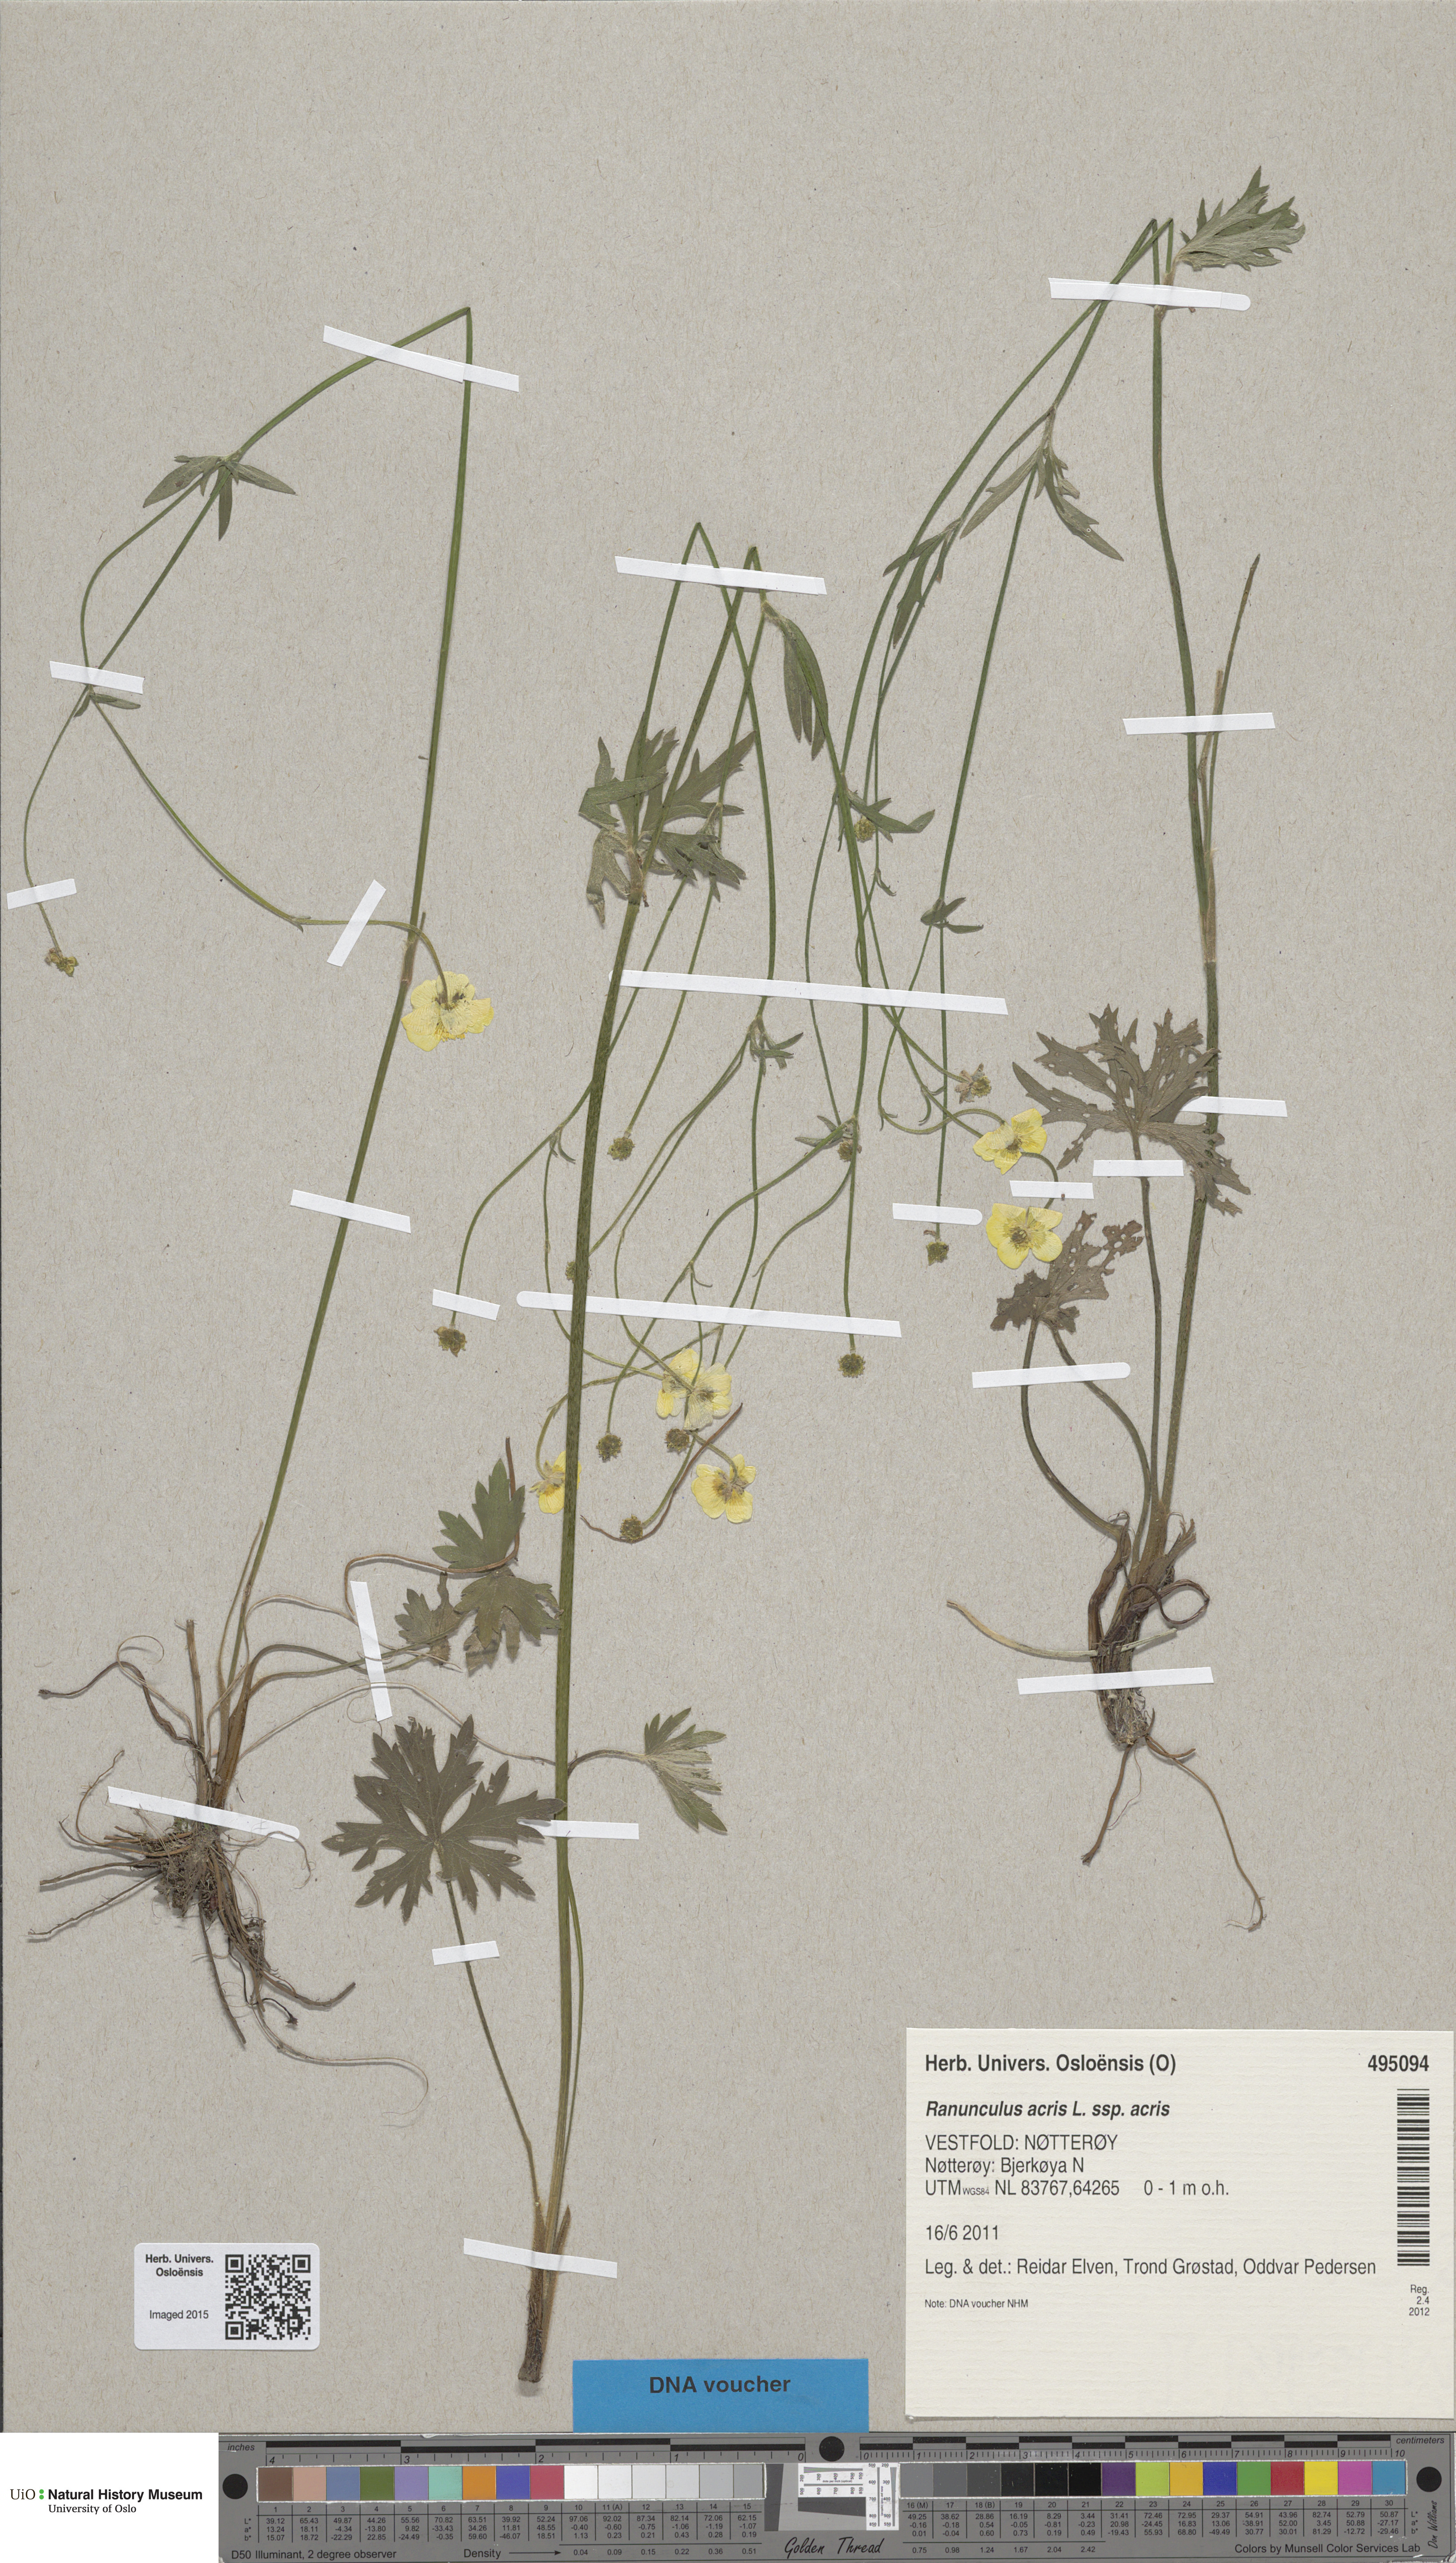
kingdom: Plantae
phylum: Tracheophyta
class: Magnoliopsida
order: Ranunculales
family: Ranunculaceae
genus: Ranunculus
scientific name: Ranunculus acris
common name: Meadow buttercup
